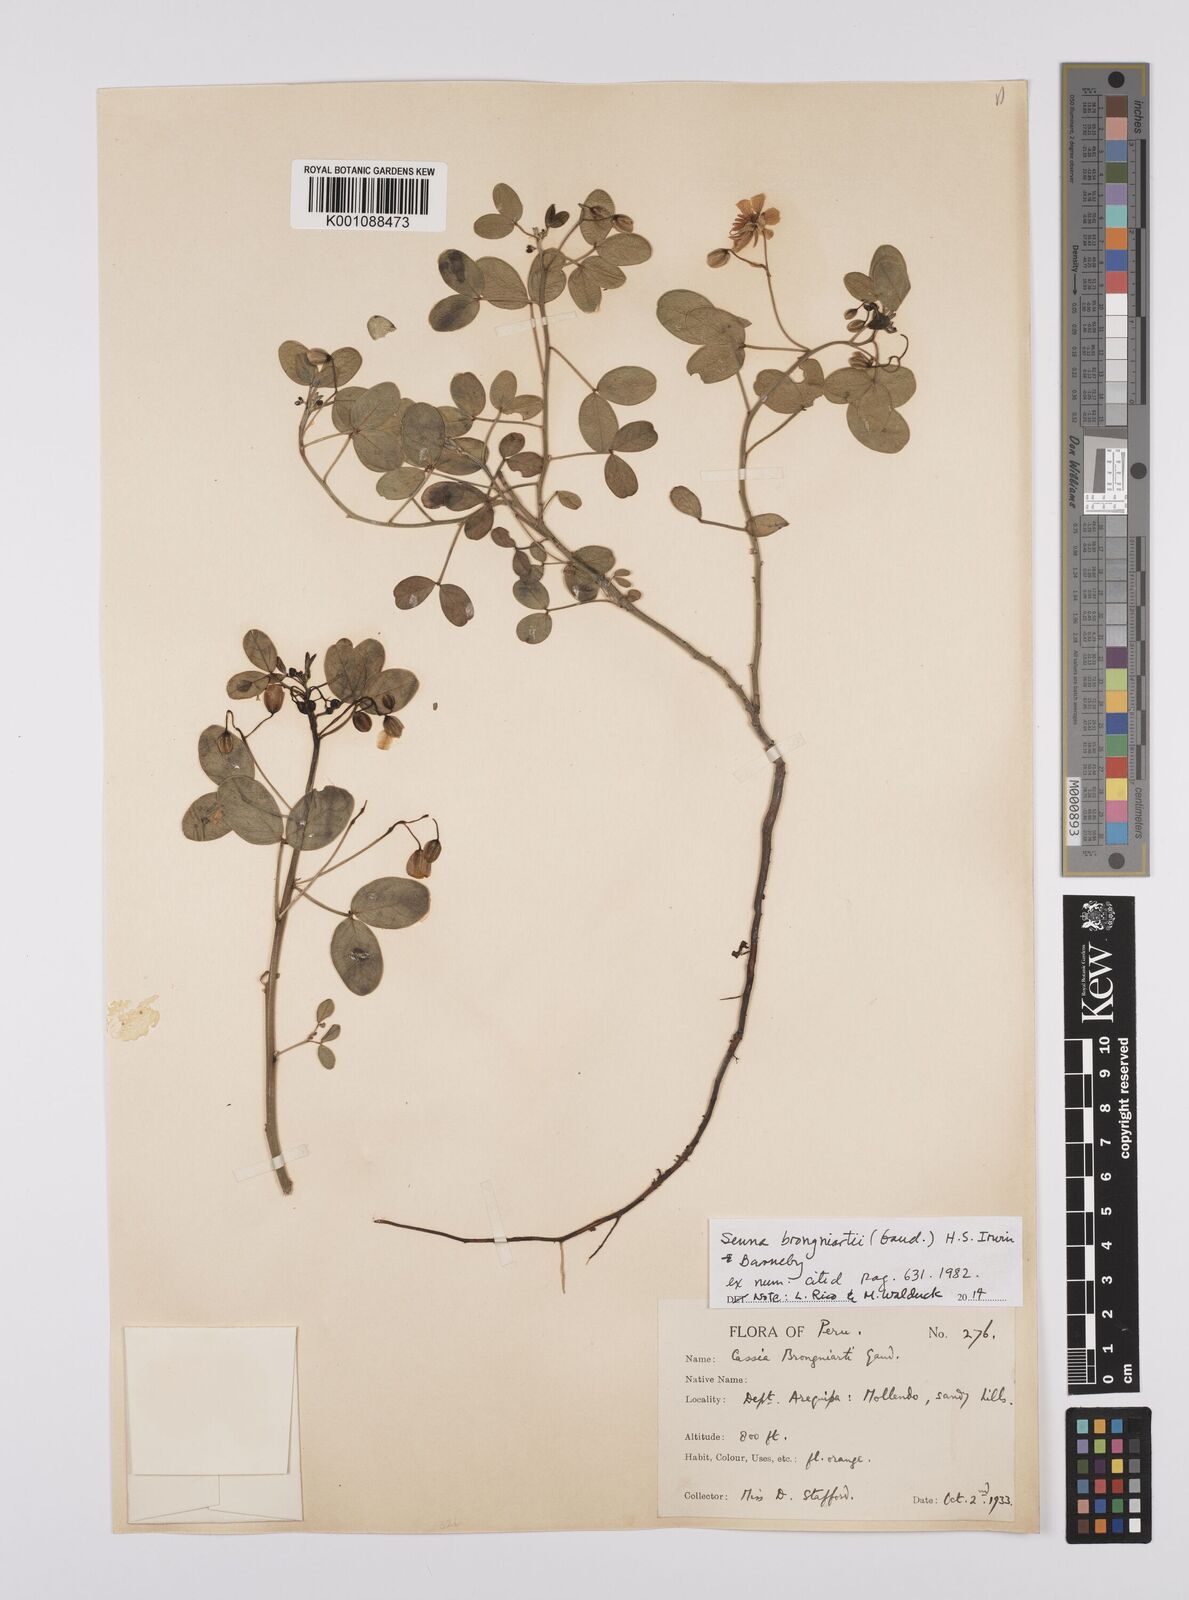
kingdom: Plantae
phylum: Tracheophyta
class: Magnoliopsida
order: Fabales
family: Fabaceae
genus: Senna
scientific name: Senna brongniartii
